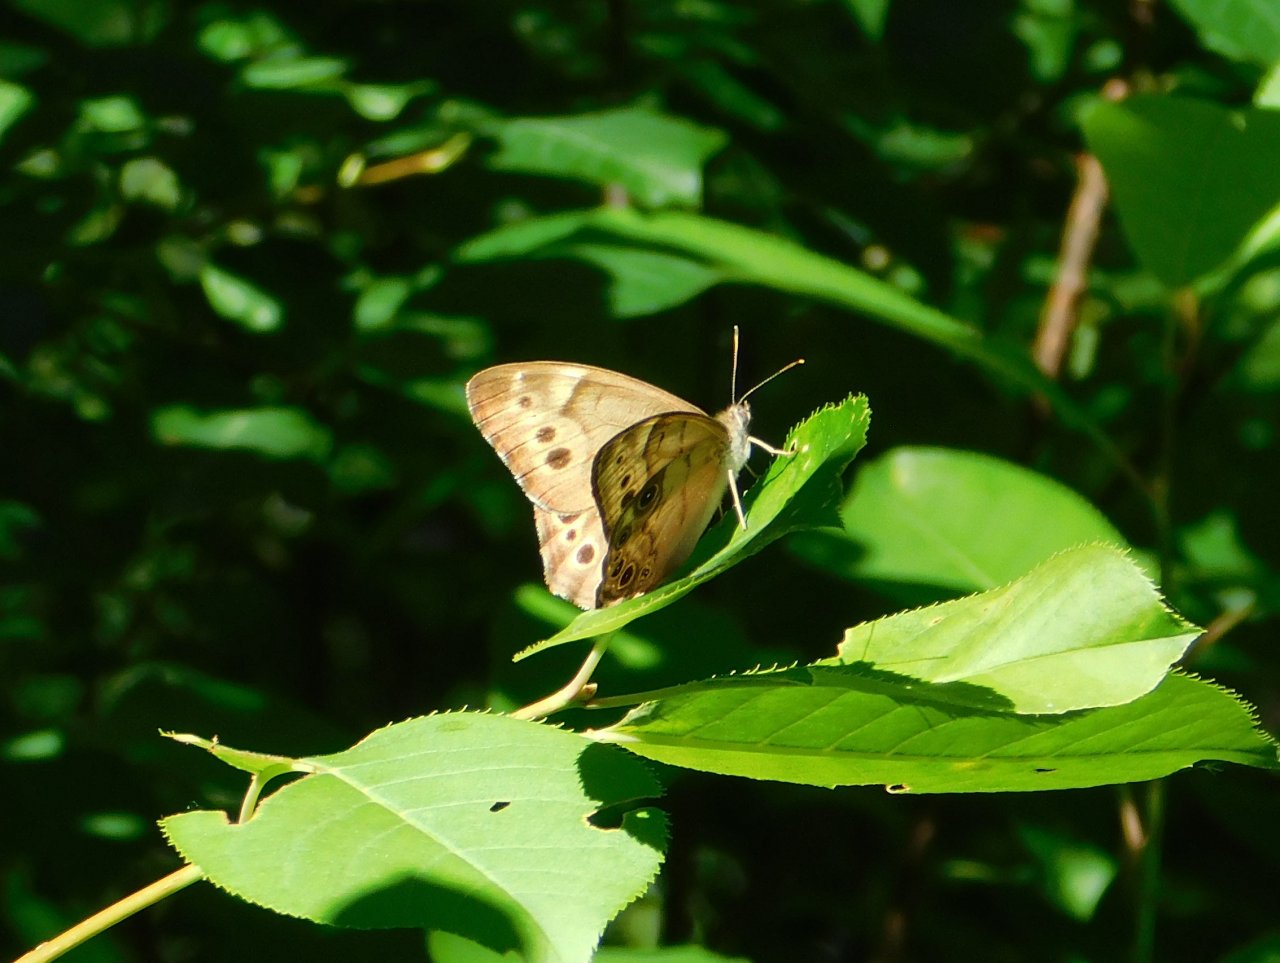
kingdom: Animalia
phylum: Arthropoda
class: Insecta
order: Lepidoptera
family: Nymphalidae
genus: Lethe
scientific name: Lethe anthedon
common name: Northern Pearly-Eye
